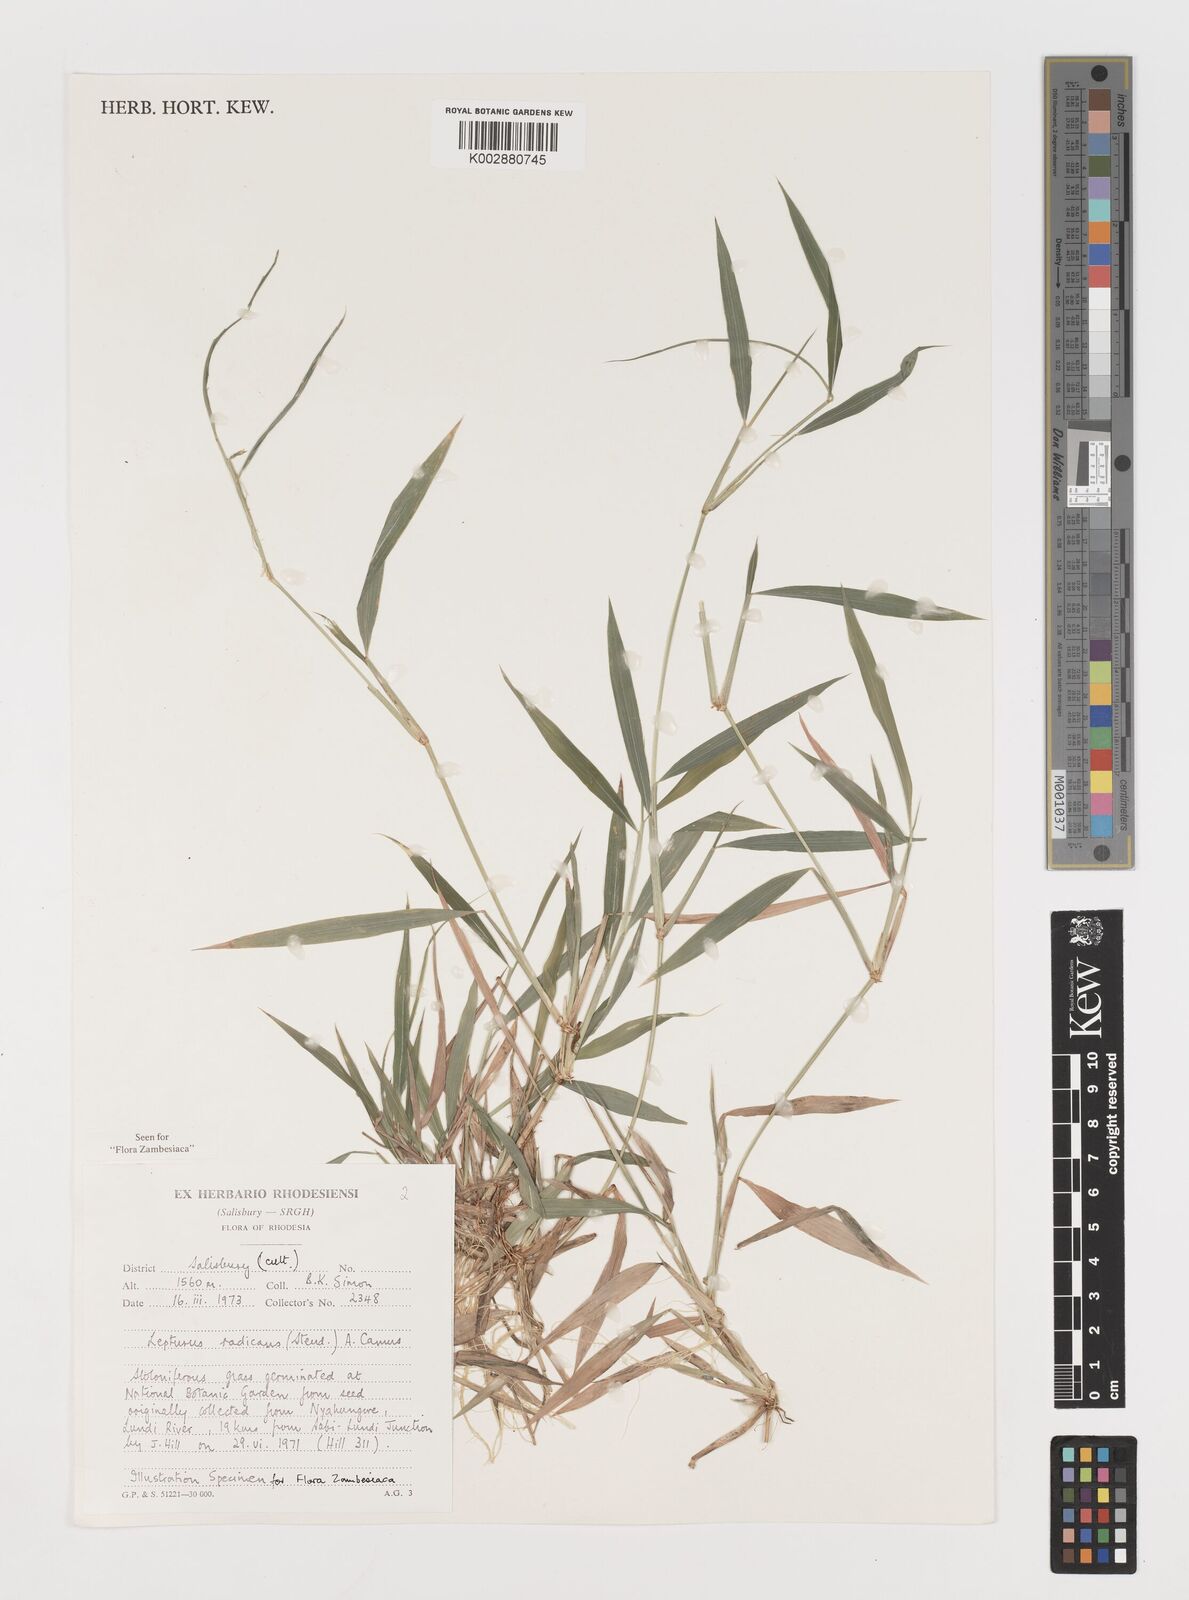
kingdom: Plantae
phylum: Tracheophyta
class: Liliopsida
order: Poales
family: Poaceae
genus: Lepturus
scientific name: Lepturus radicans
